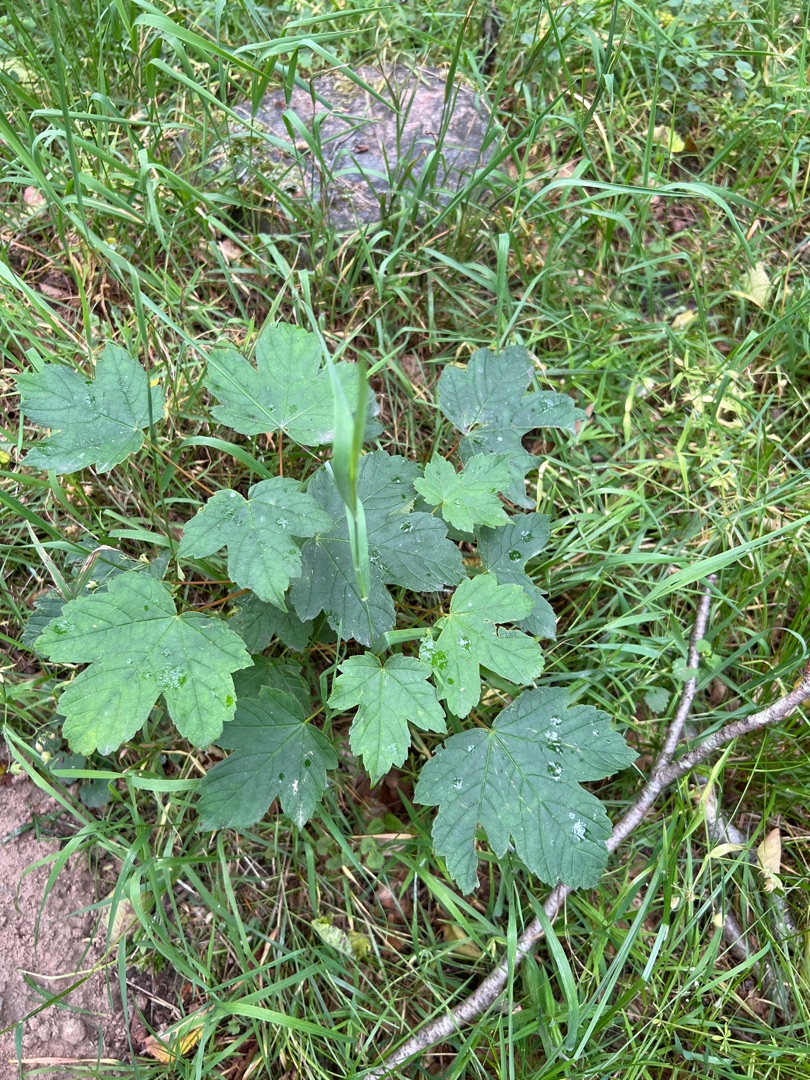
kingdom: Plantae
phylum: Tracheophyta
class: Magnoliopsida
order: Sapindales
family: Sapindaceae
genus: Acer
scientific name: Acer pseudoplatanus
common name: Ahorn
